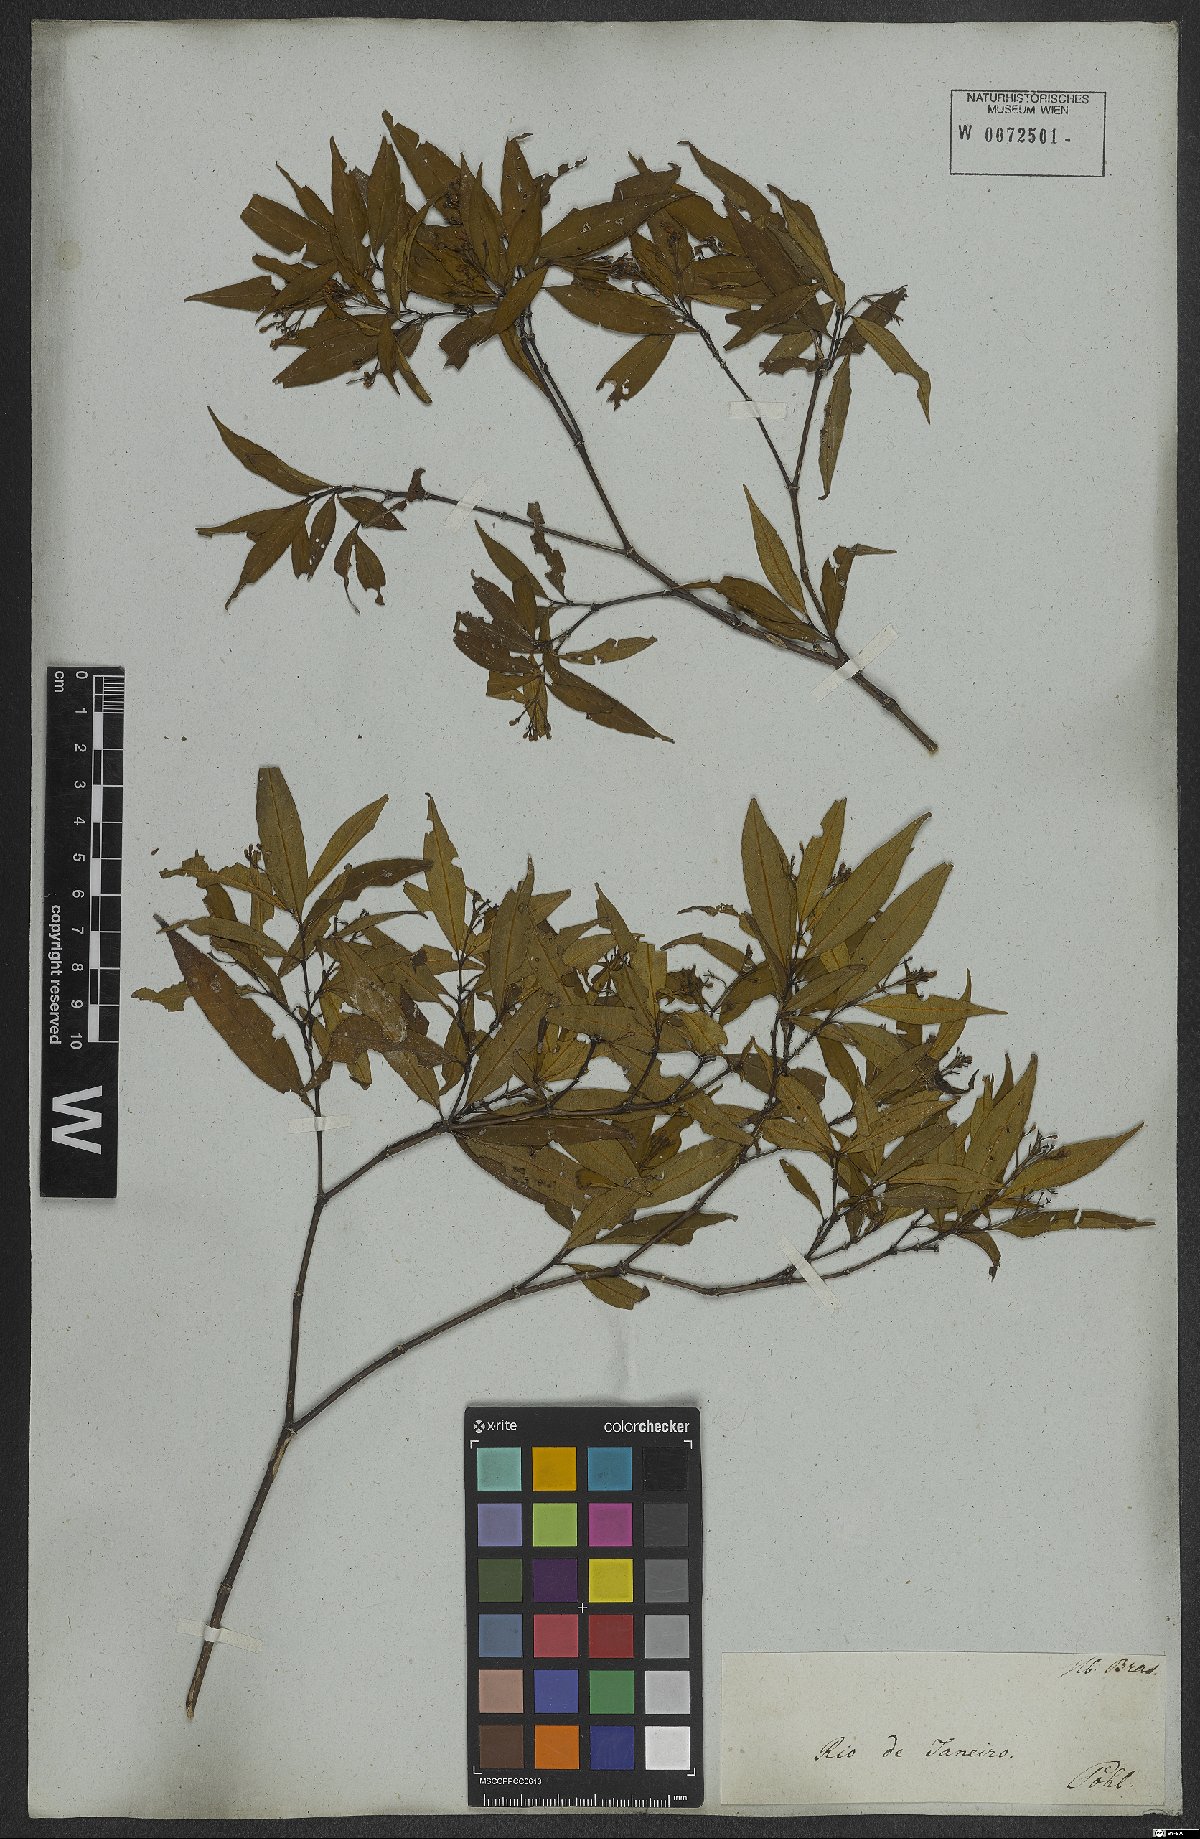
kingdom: Plantae
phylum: Tracheophyta
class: Magnoliopsida
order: Gentianales
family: Rubiaceae
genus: Psychotria
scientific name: Psychotria leiocarpa
